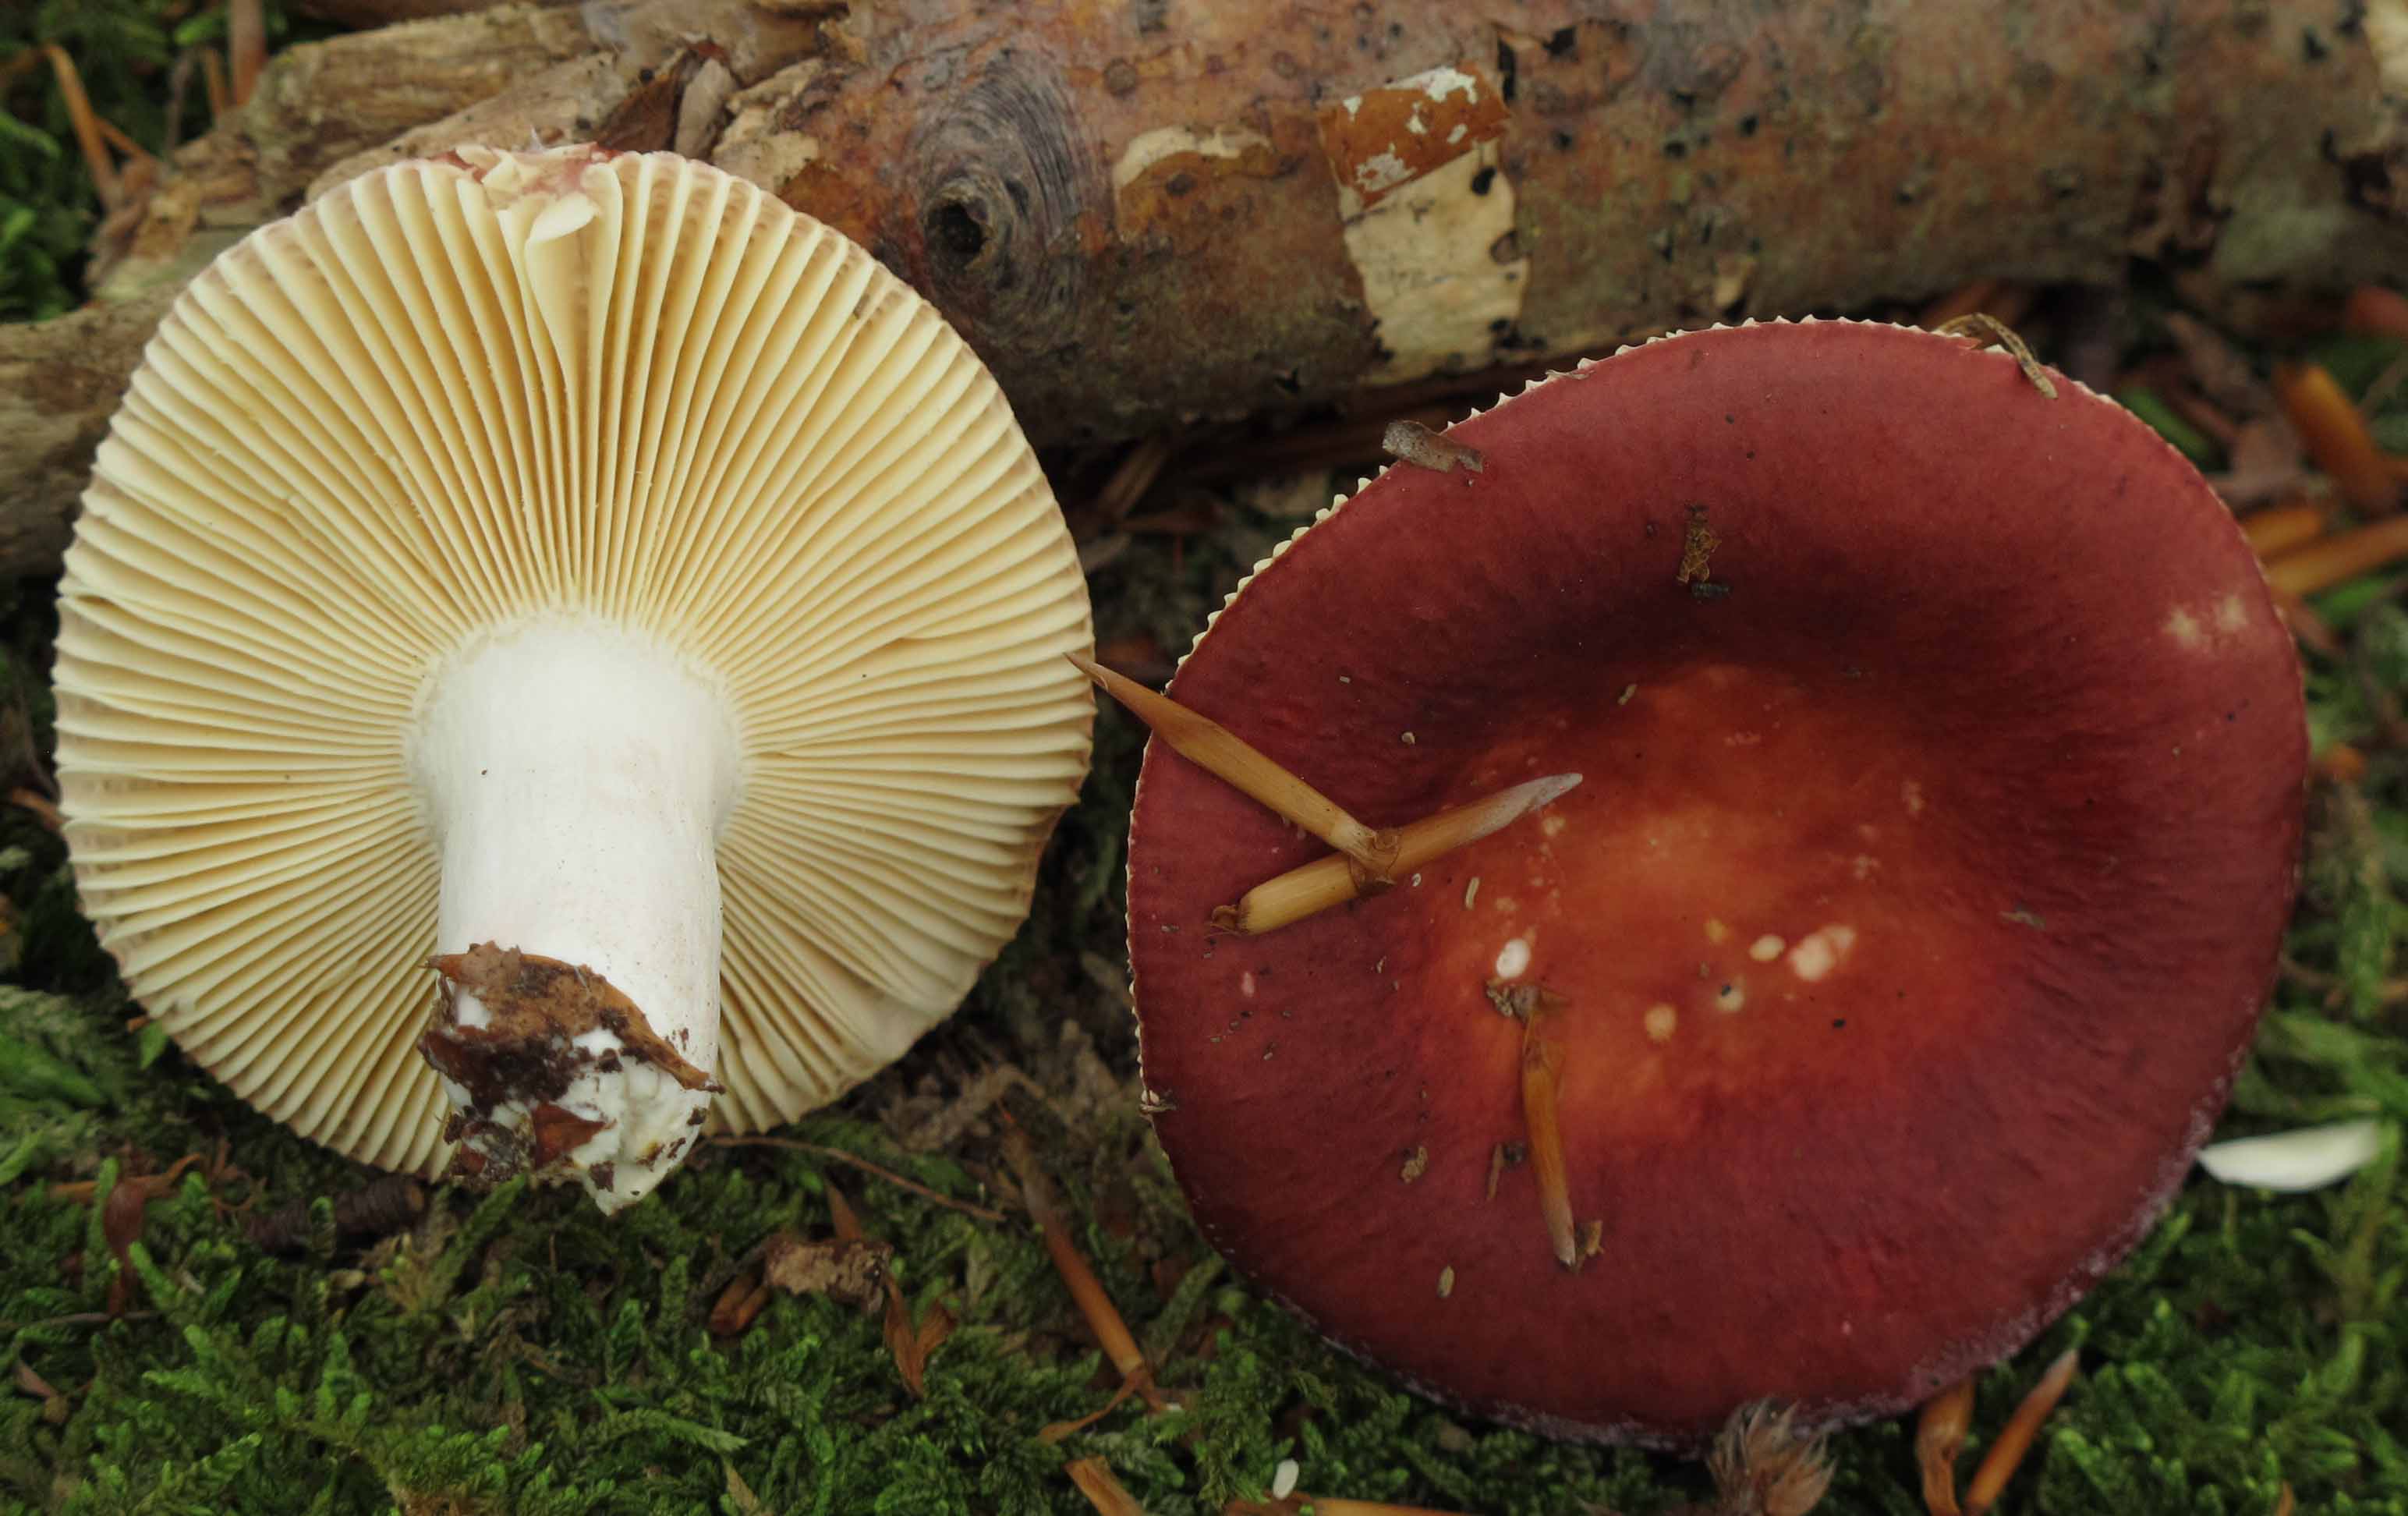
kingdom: Fungi
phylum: Basidiomycota
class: Agaricomycetes
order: Russulales
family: Russulaceae
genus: Russula
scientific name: Russula velenovskyi
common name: orangerød skørhat
